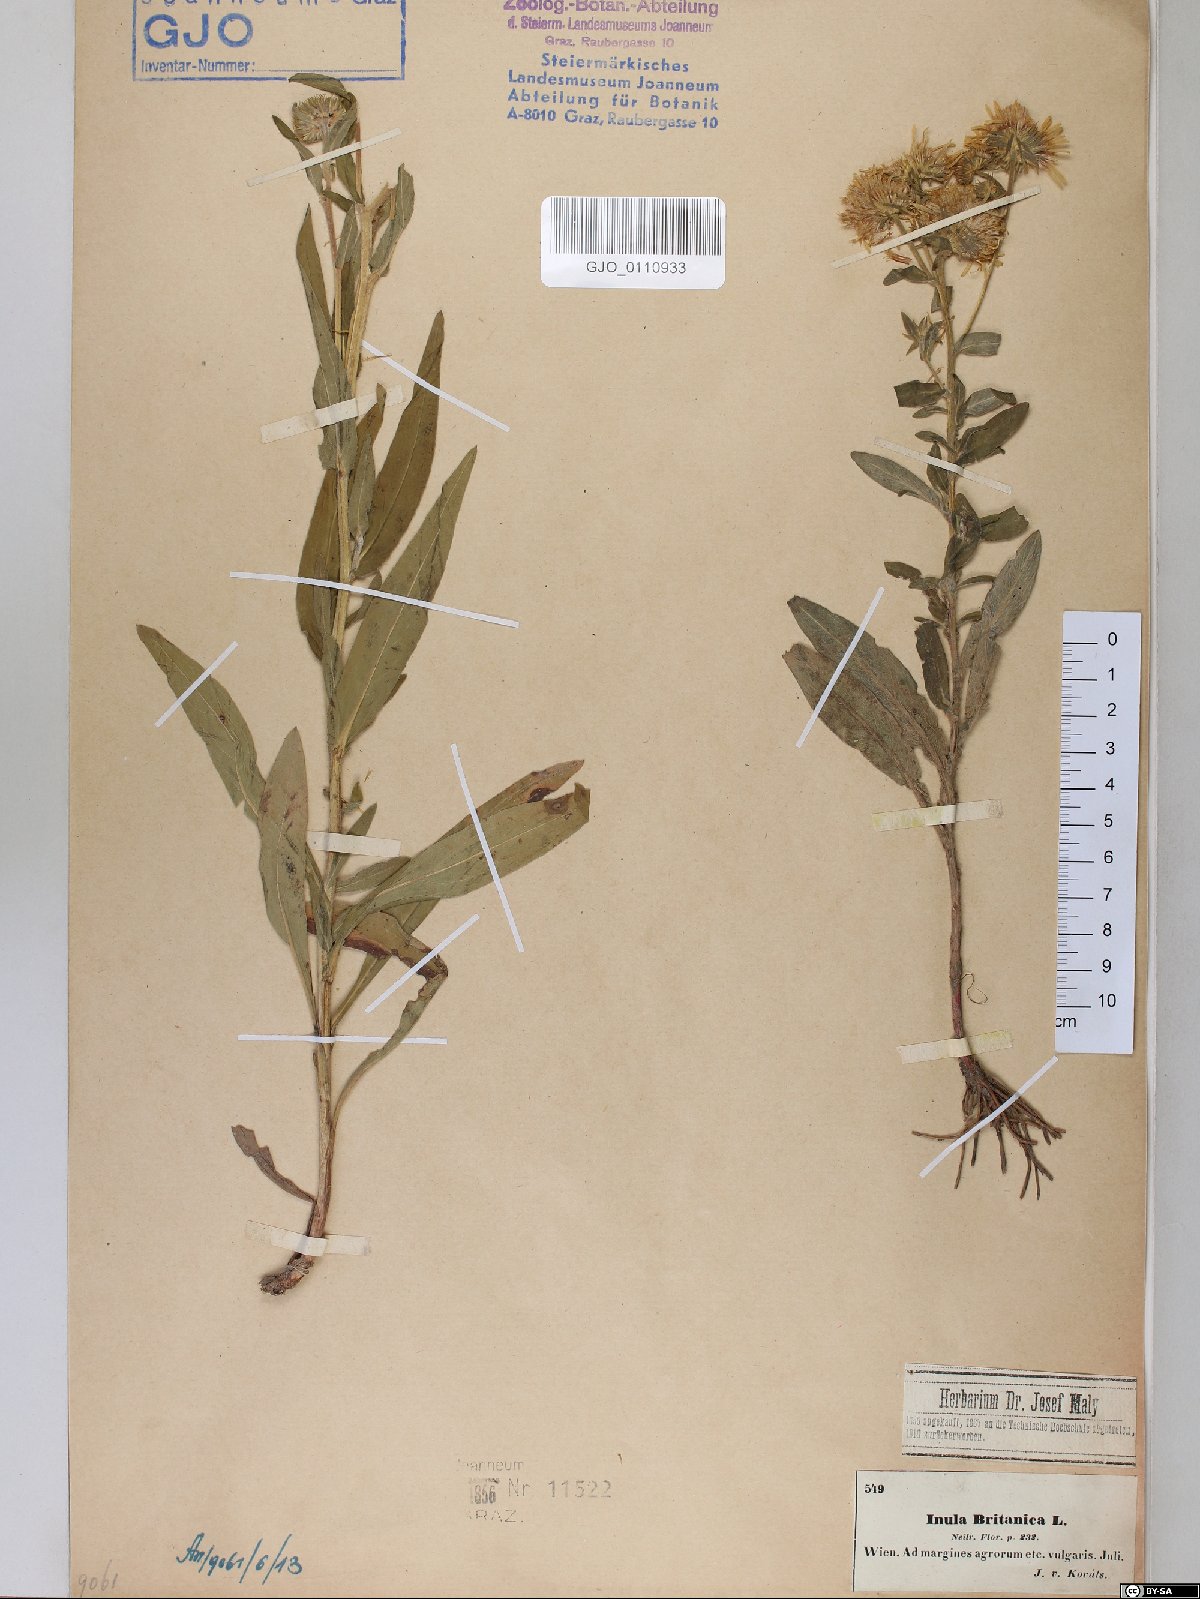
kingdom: Plantae
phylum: Tracheophyta
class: Magnoliopsida
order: Asterales
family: Asteraceae
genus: Pentanema
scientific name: Pentanema britannicum
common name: British elecampane
